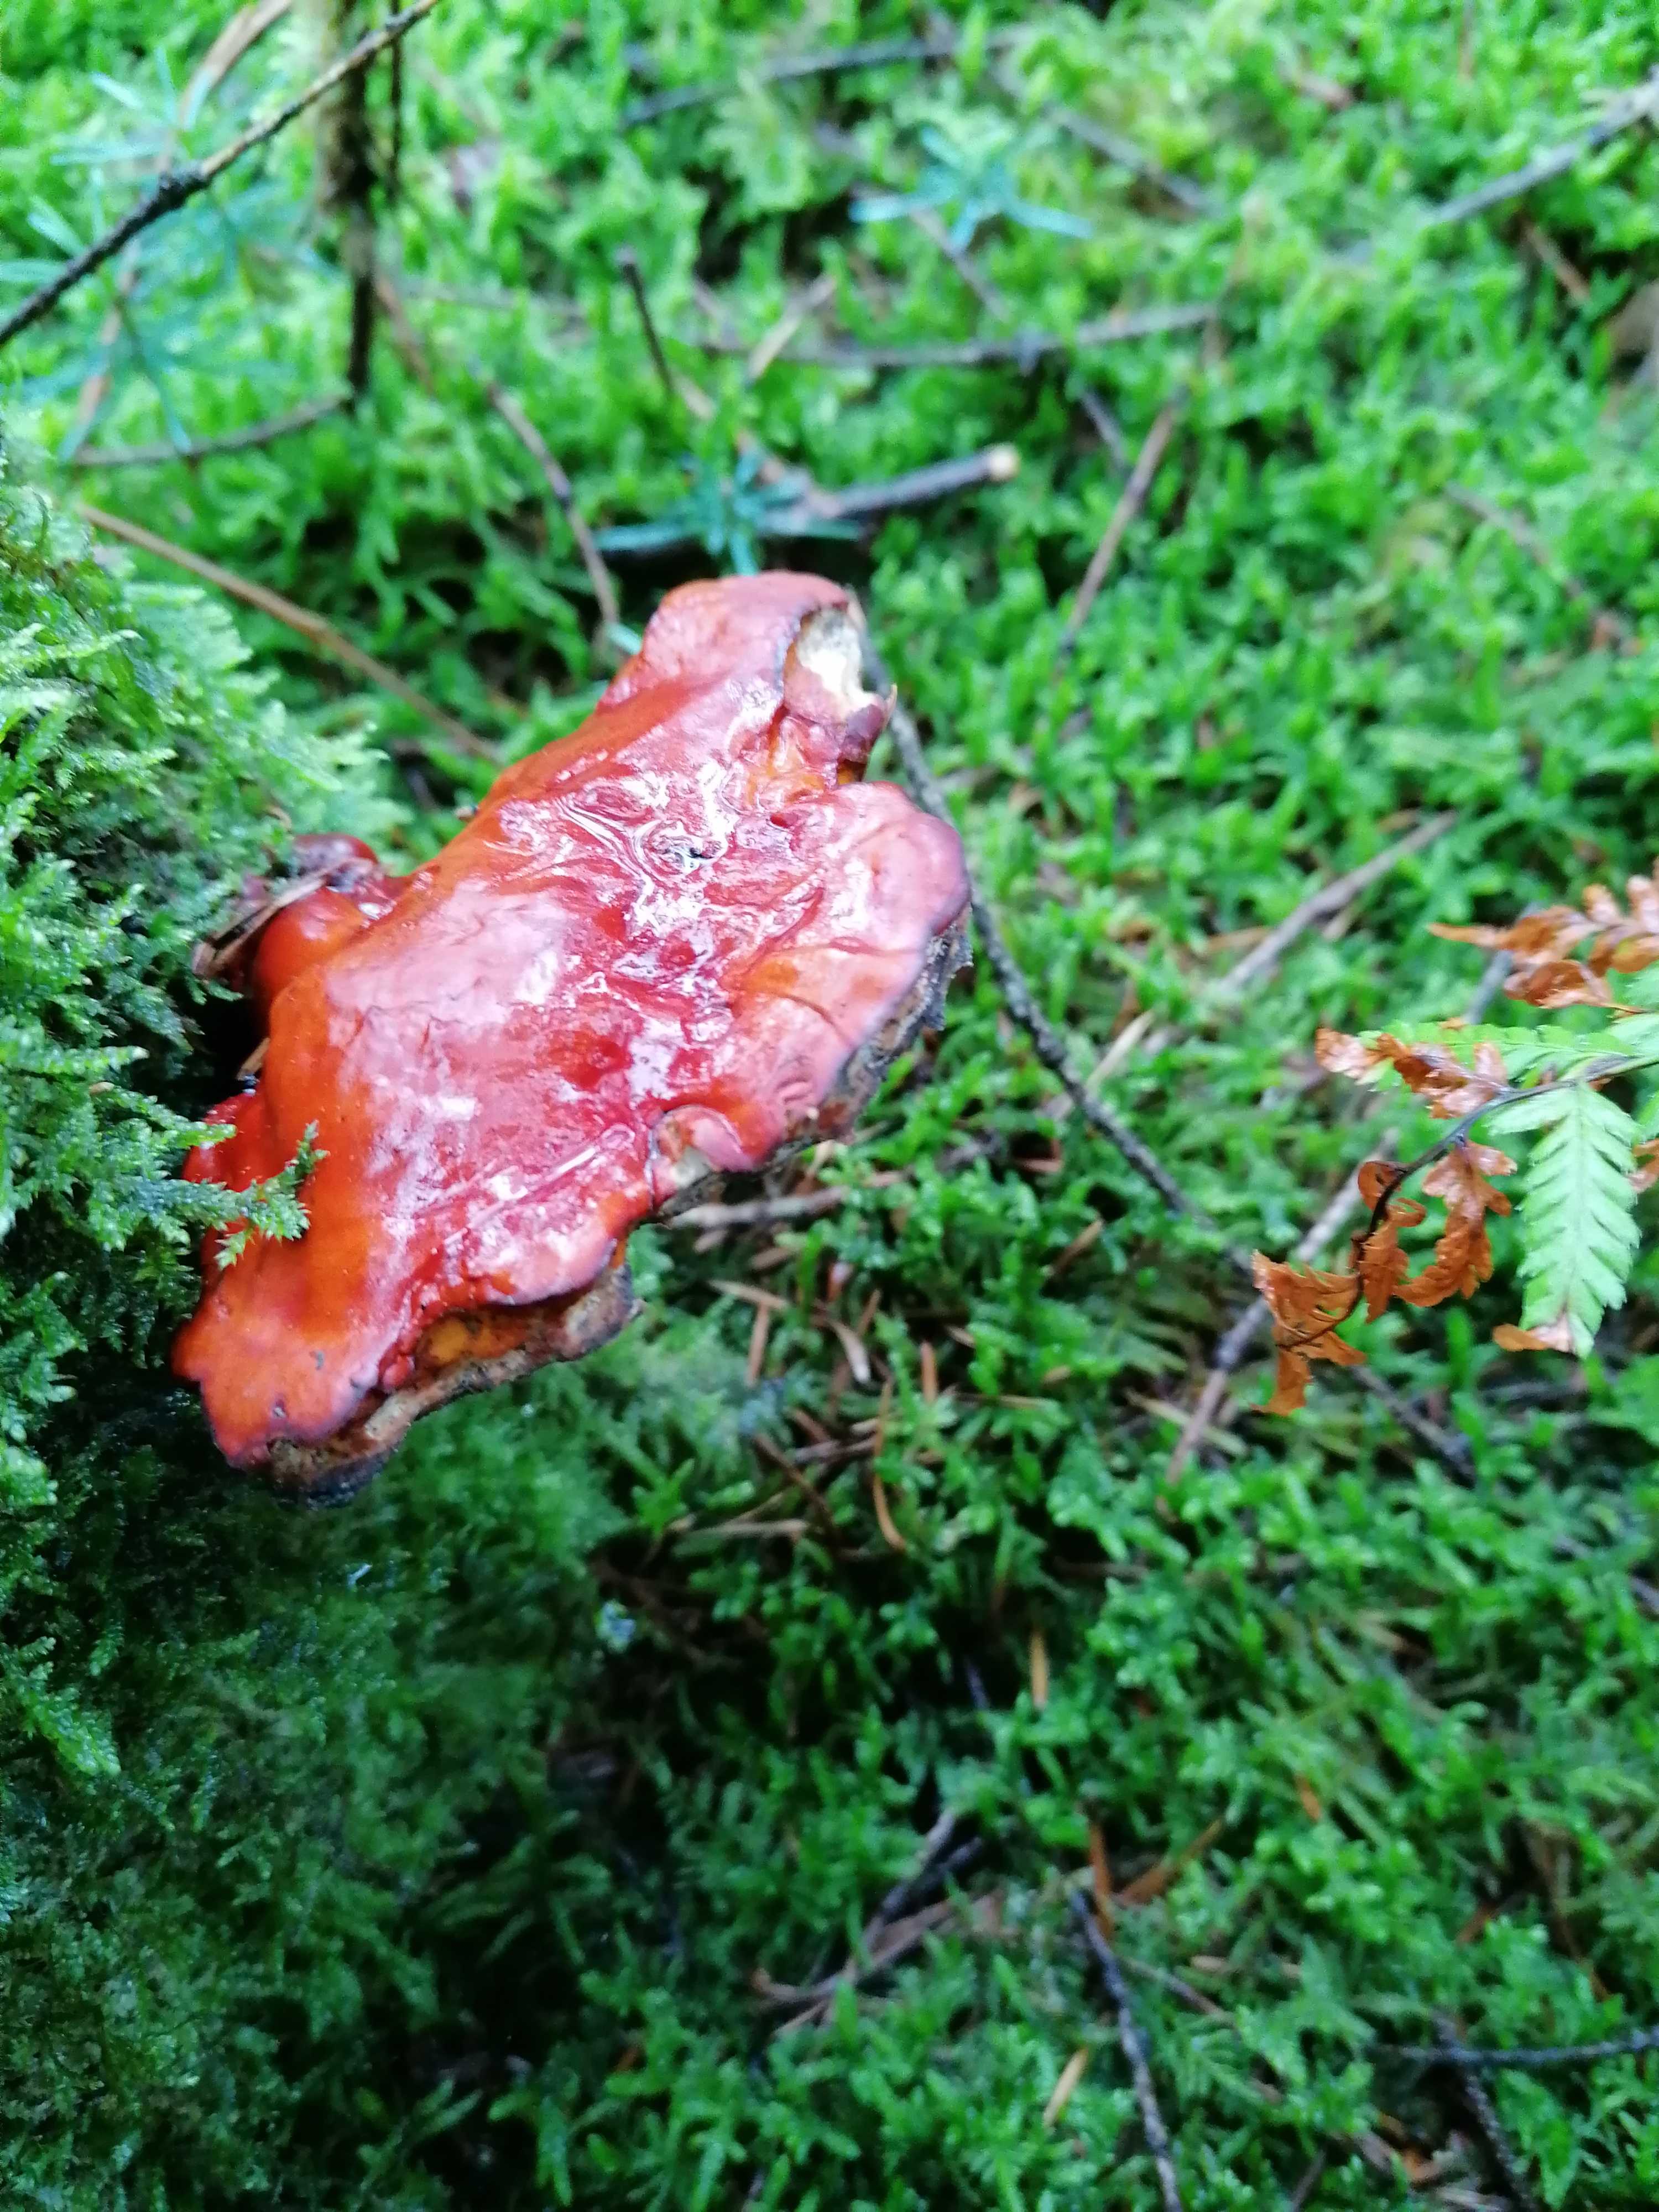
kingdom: Fungi
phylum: Basidiomycota
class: Agaricomycetes
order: Polyporales
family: Polyporaceae
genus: Ganoderma
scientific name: Ganoderma lucidum
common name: skinnende lakporesvamp
